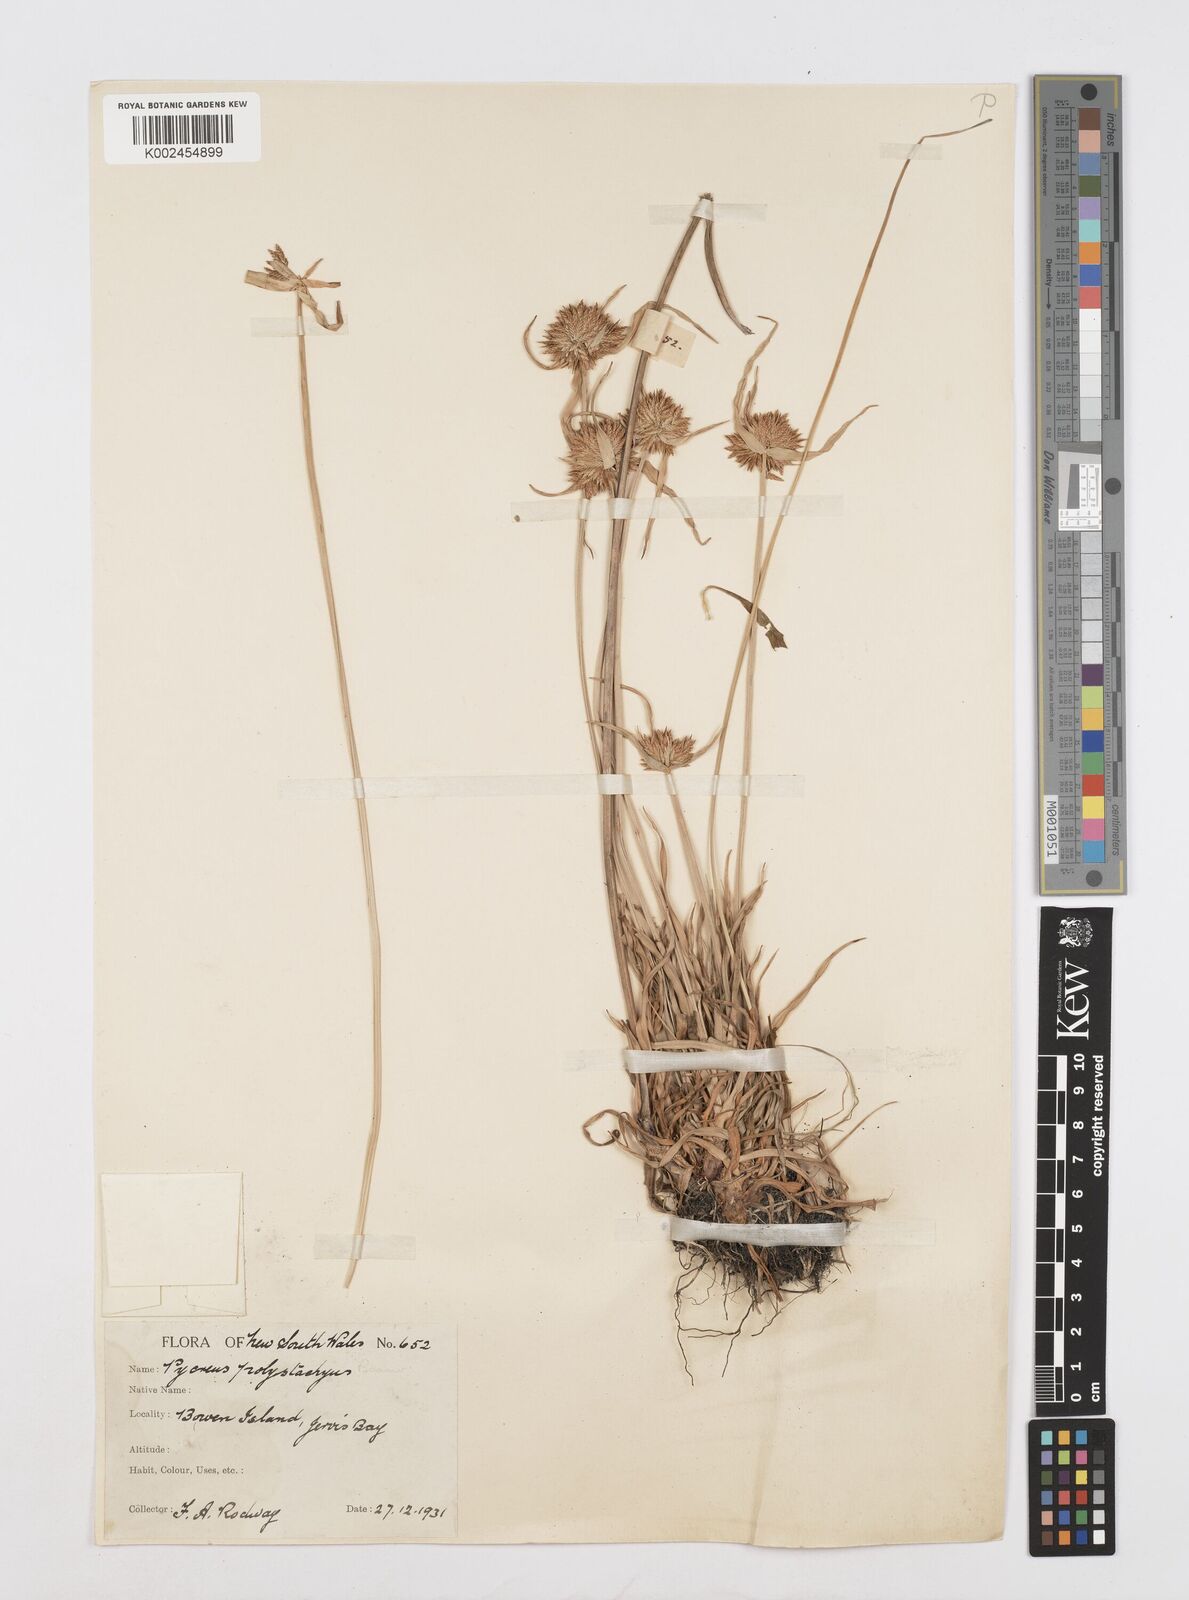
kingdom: Plantae
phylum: Tracheophyta
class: Liliopsida
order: Poales
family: Cyperaceae
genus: Cyperus
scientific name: Cyperus polystachyos
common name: Bunchy flat sedge
